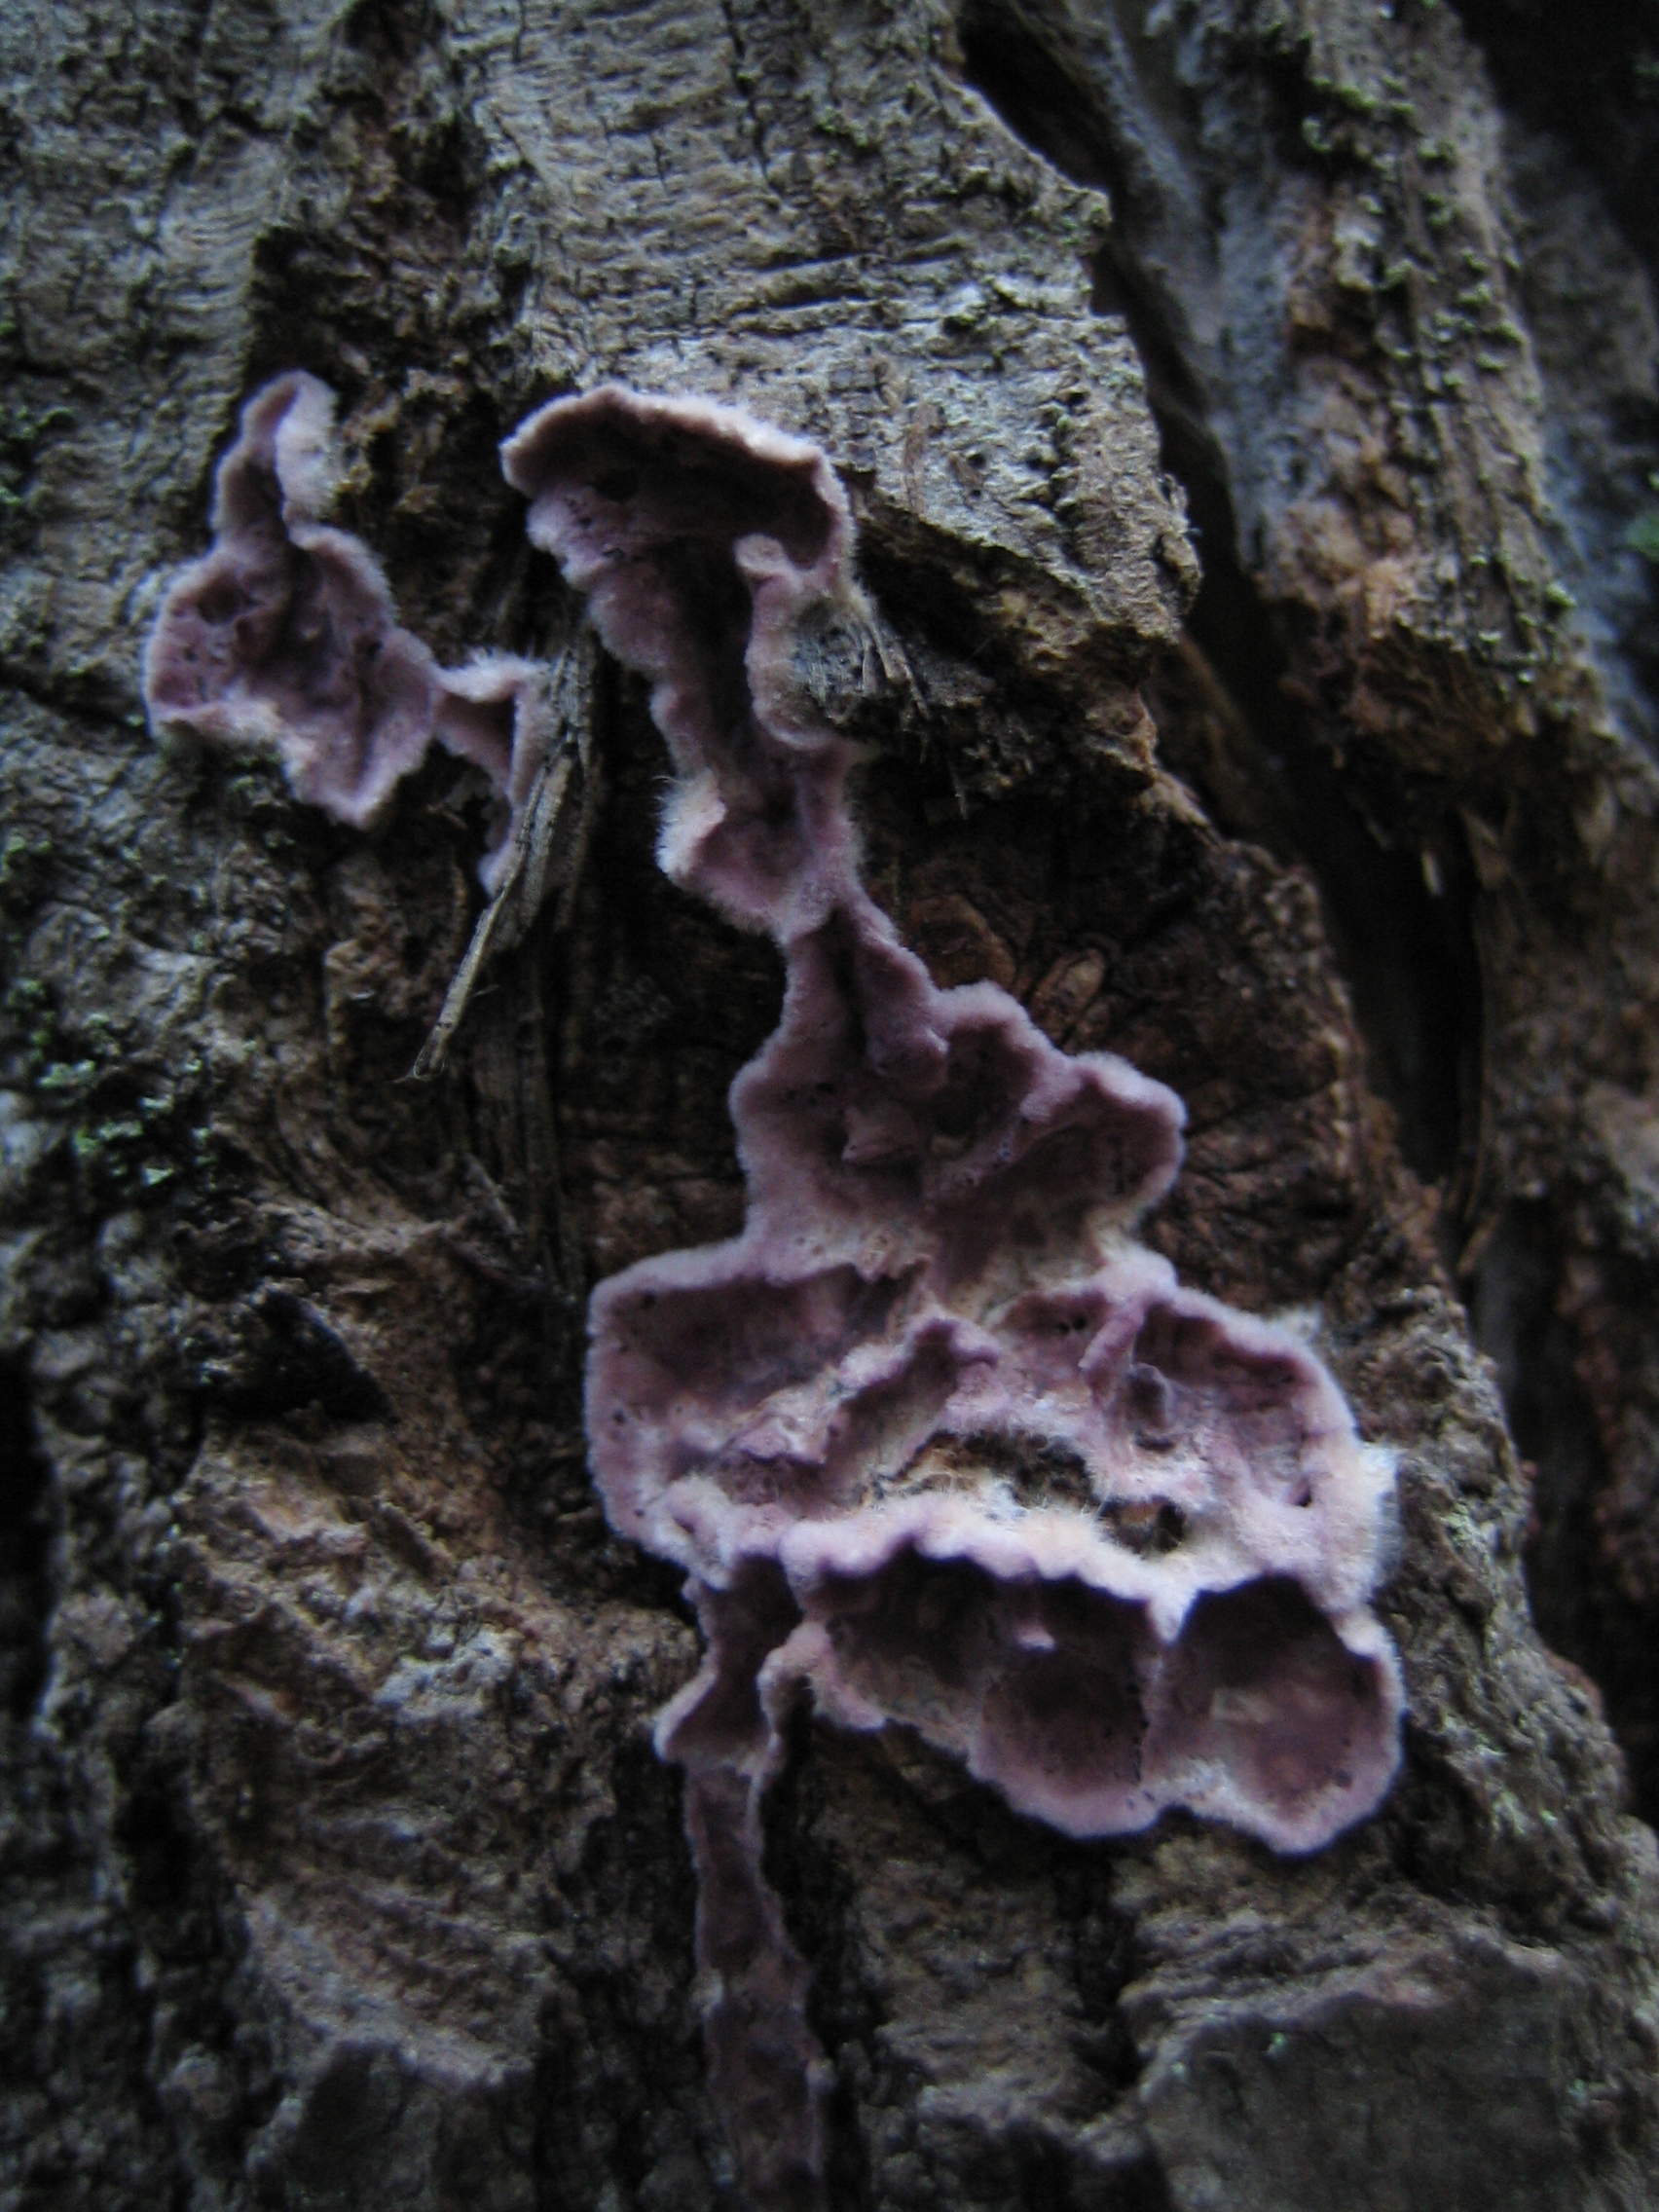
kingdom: Fungi
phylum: Basidiomycota
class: Agaricomycetes
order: Agaricales
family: Cyphellaceae
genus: Chondrostereum
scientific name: Chondrostereum purpureum
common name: Silver leaf disease
